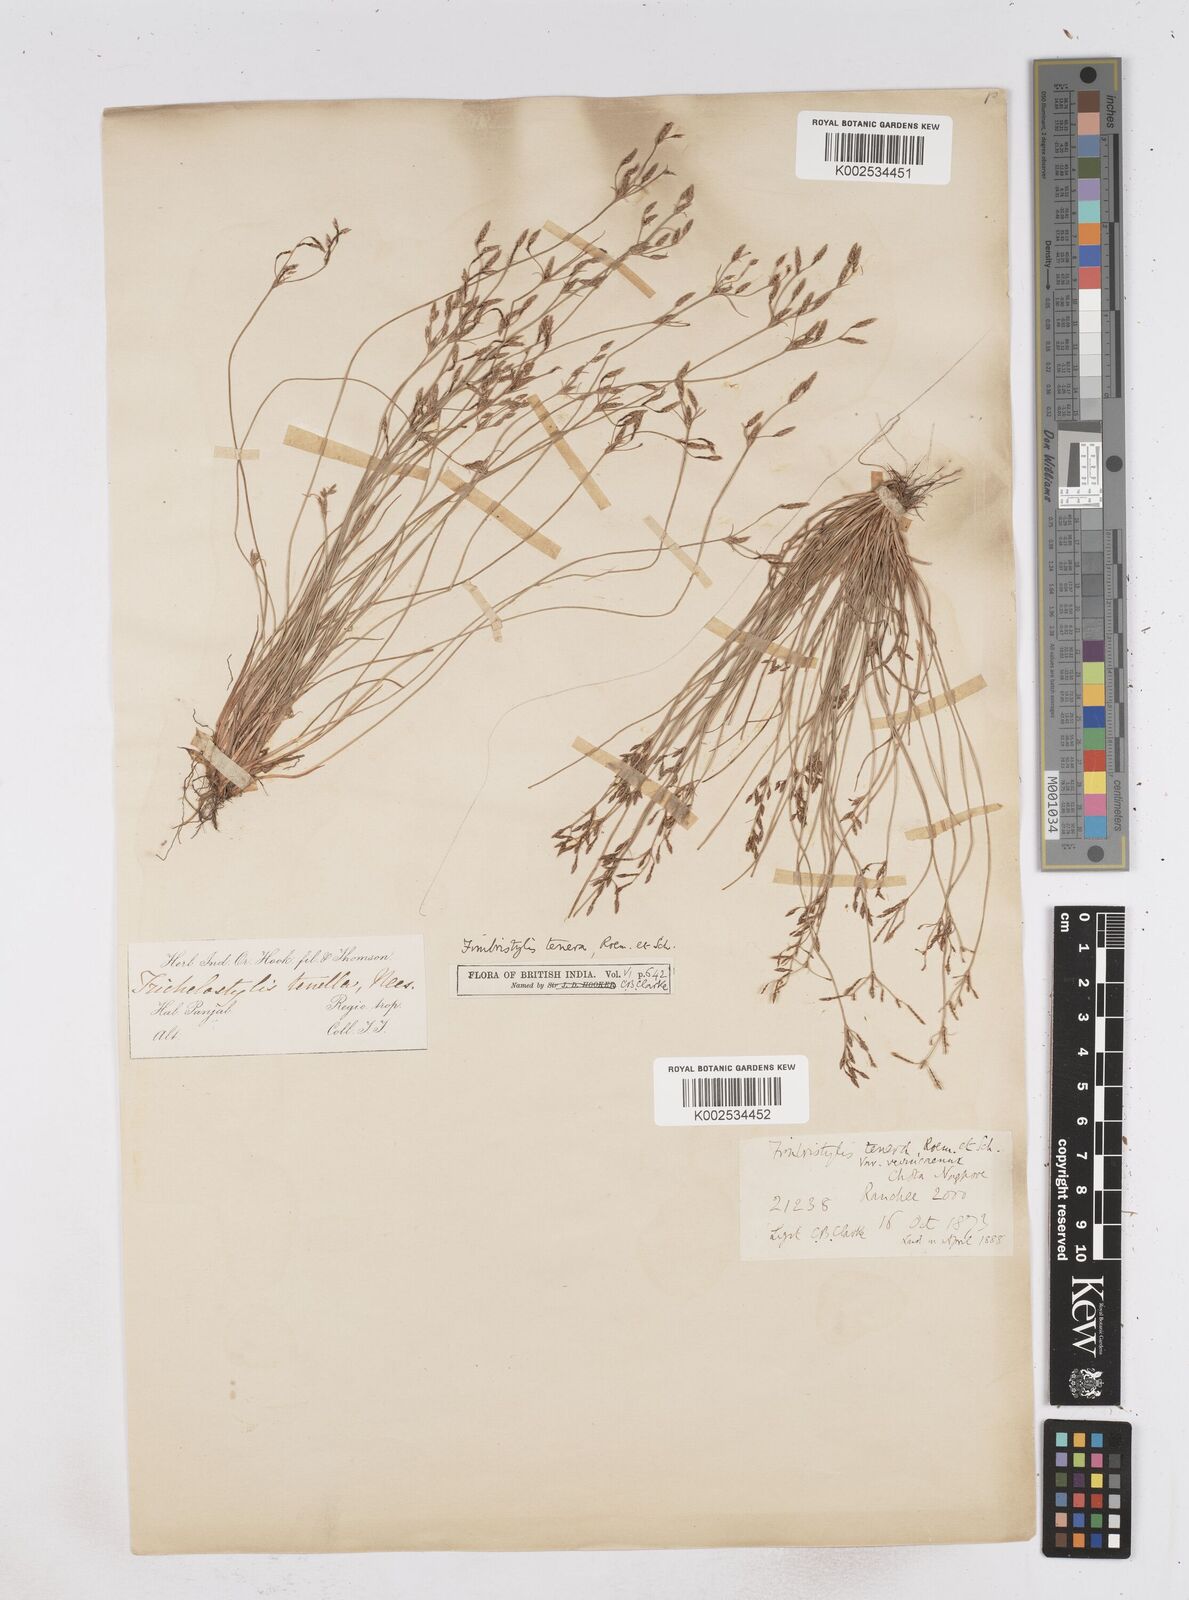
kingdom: Plantae
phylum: Tracheophyta
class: Liliopsida
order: Poales
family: Cyperaceae
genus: Fimbristylis
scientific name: Fimbristylis tenera
